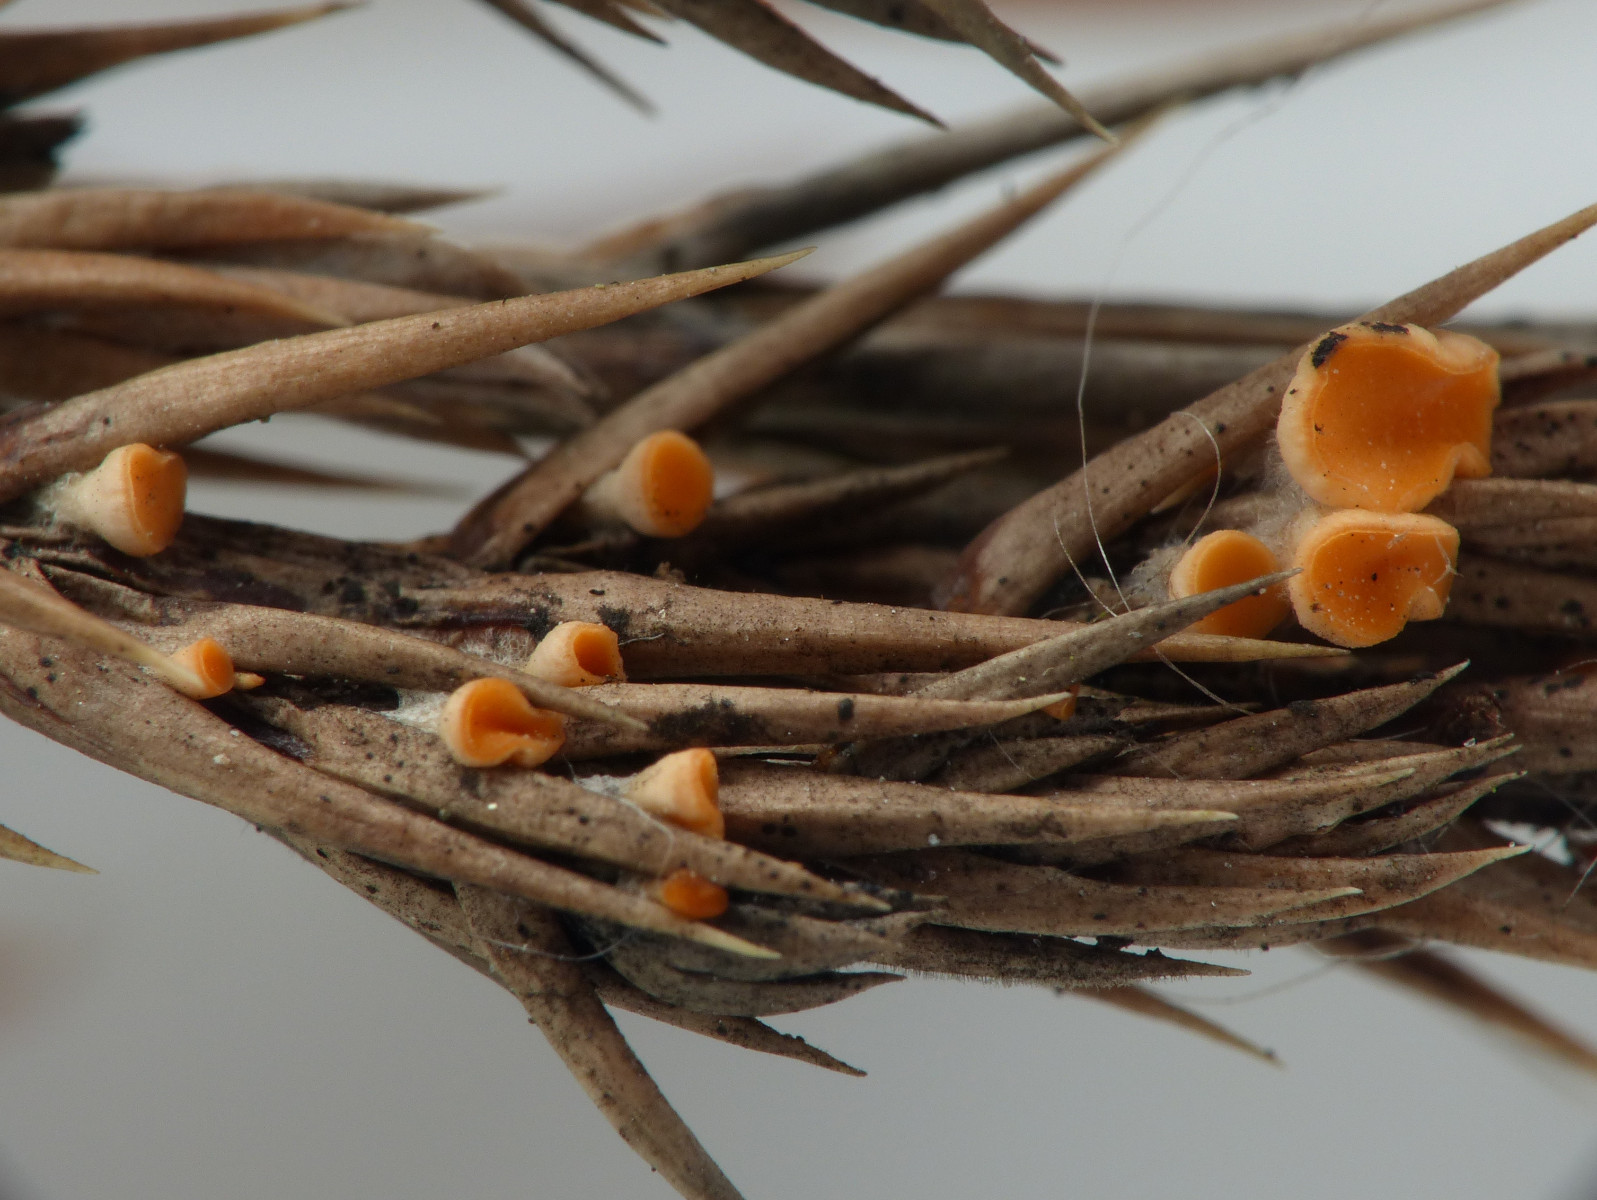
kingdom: Fungi
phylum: Ascomycota
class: Pezizomycetes
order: Pezizales
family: Sarcoscyphaceae
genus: Pithya
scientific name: Pithya cupressina
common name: lille dukatbæger
